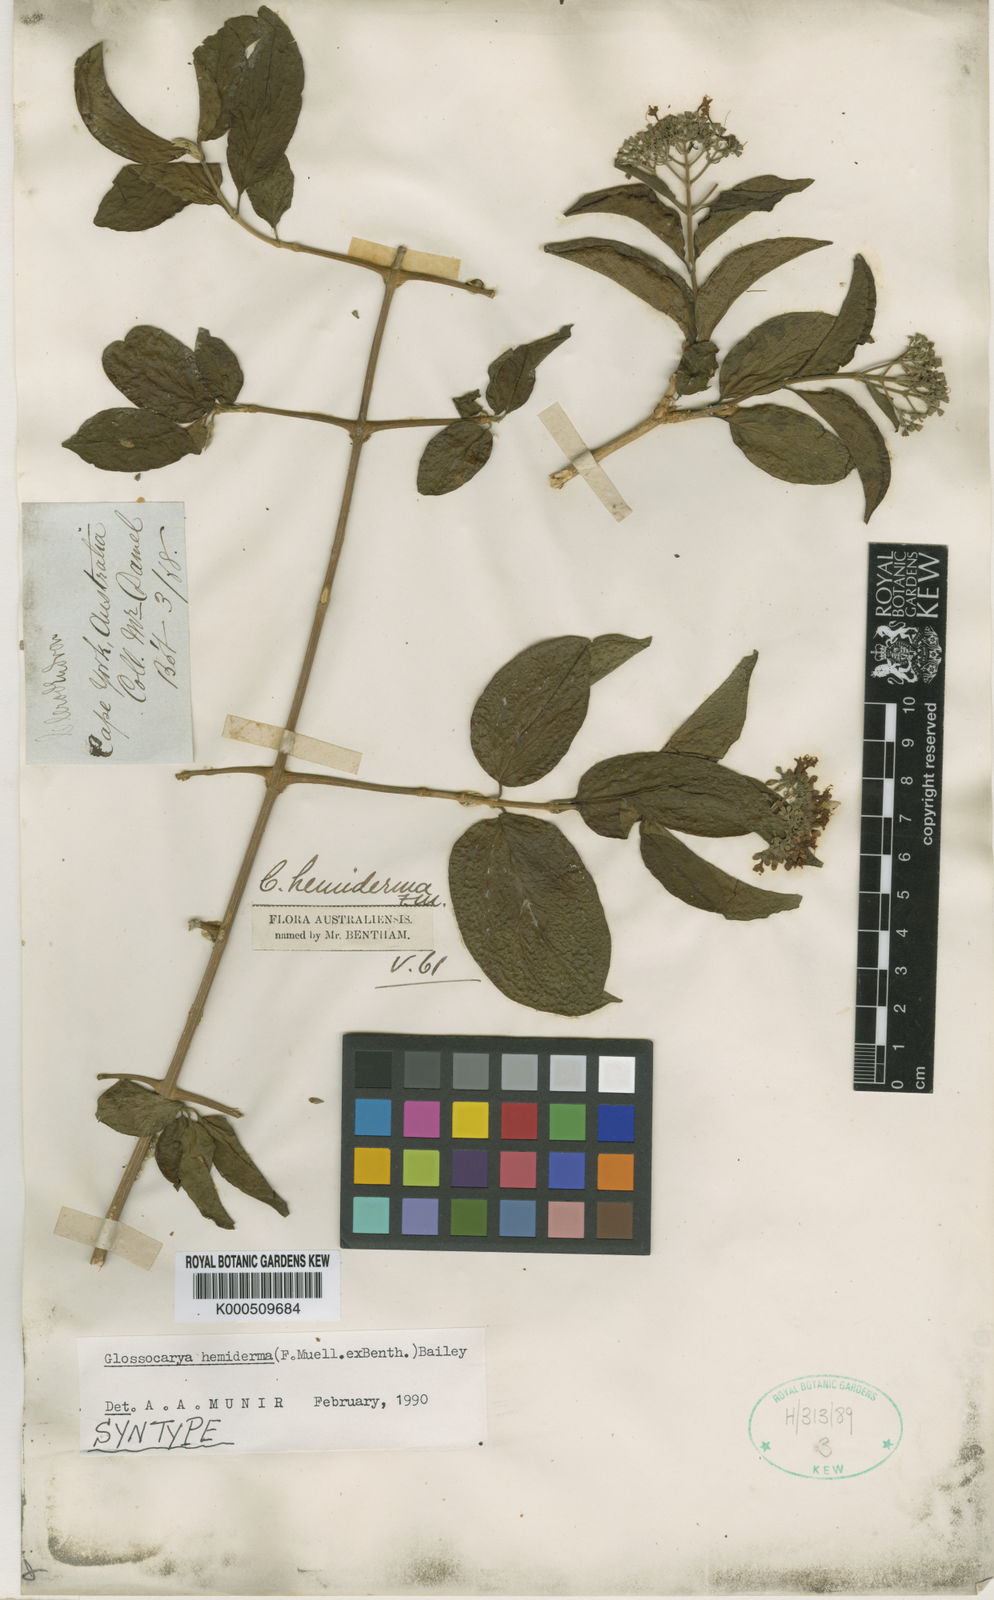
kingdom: Plantae
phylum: Tracheophyta
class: Magnoliopsida
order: Lamiales
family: Lamiaceae
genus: Glossocarya
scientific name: Glossocarya
